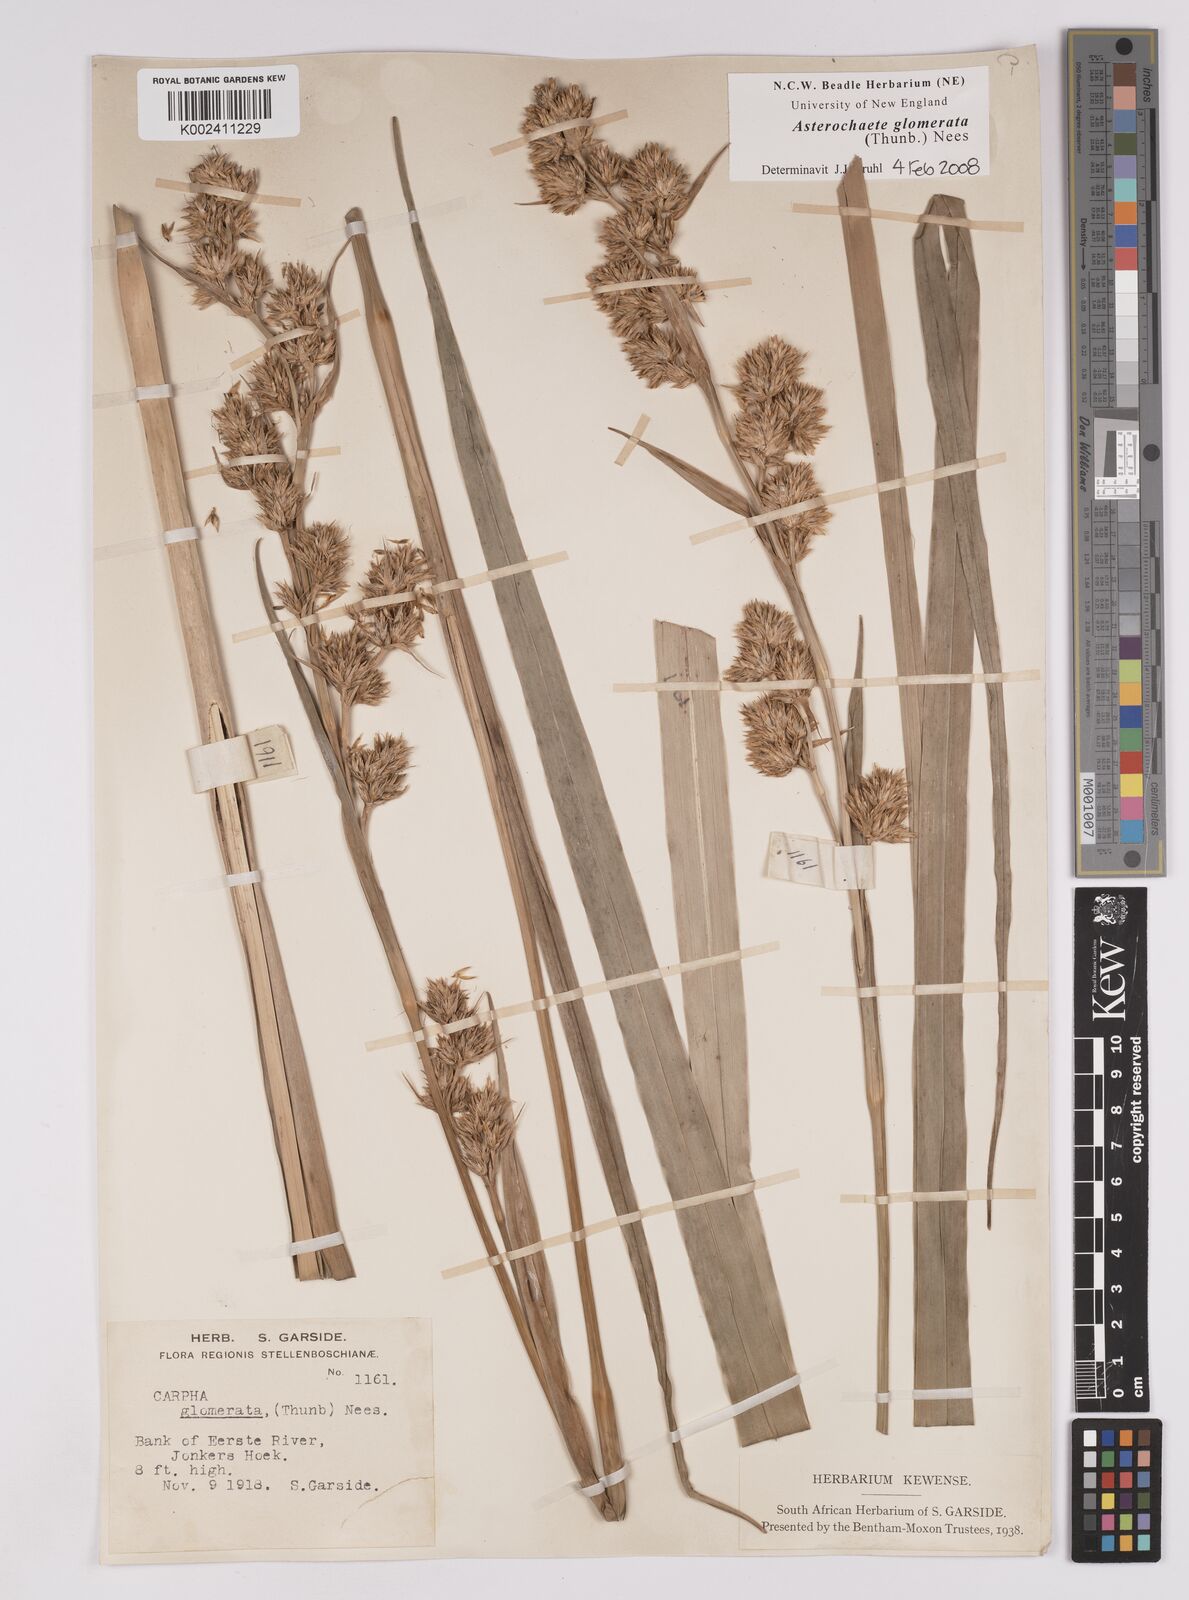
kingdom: Plantae
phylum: Tracheophyta
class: Liliopsida
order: Poales
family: Cyperaceae
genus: Carpha
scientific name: Carpha glomerata
